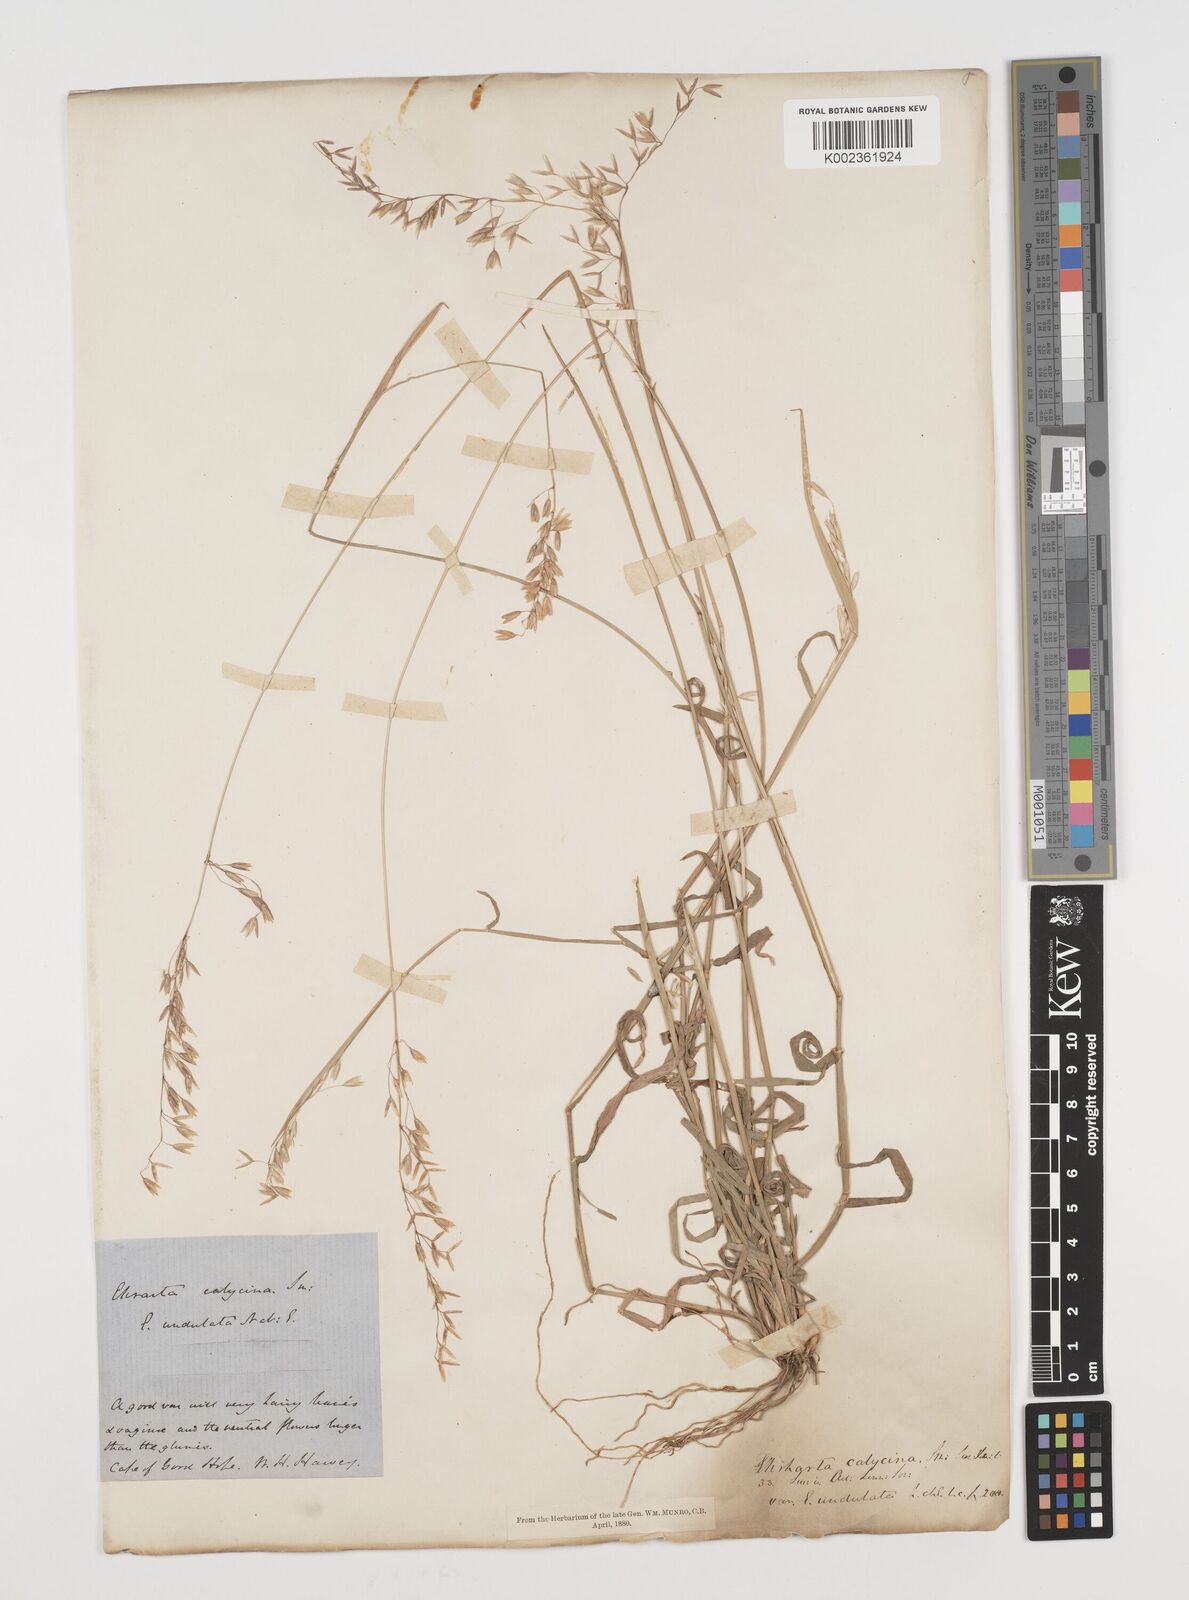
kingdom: Plantae
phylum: Tracheophyta
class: Liliopsida
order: Poales
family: Poaceae
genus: Ehrharta
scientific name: Ehrharta calycina
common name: Perennial veldtgrass
